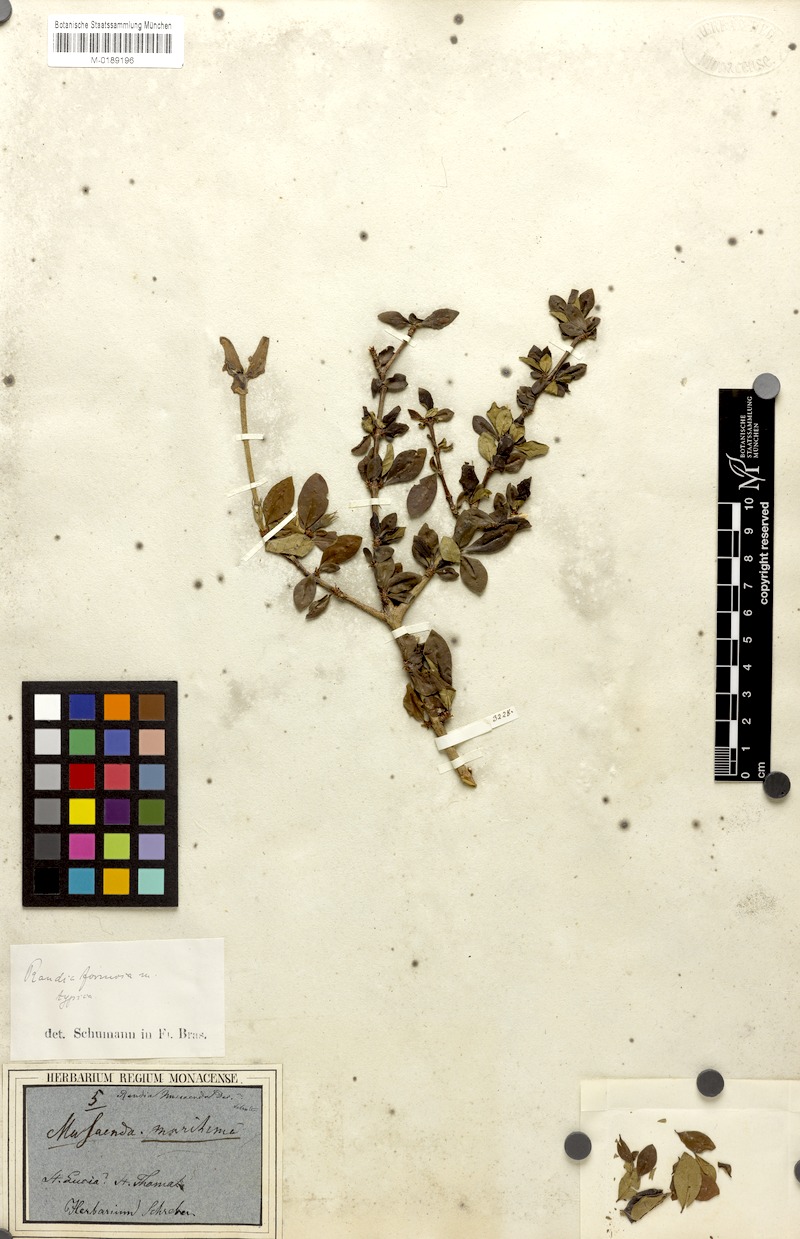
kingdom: Plantae
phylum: Tracheophyta
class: Magnoliopsida
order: Gentianales
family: Rubiaceae
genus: Rosenbergiodendron
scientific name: Rosenbergiodendron formosum
